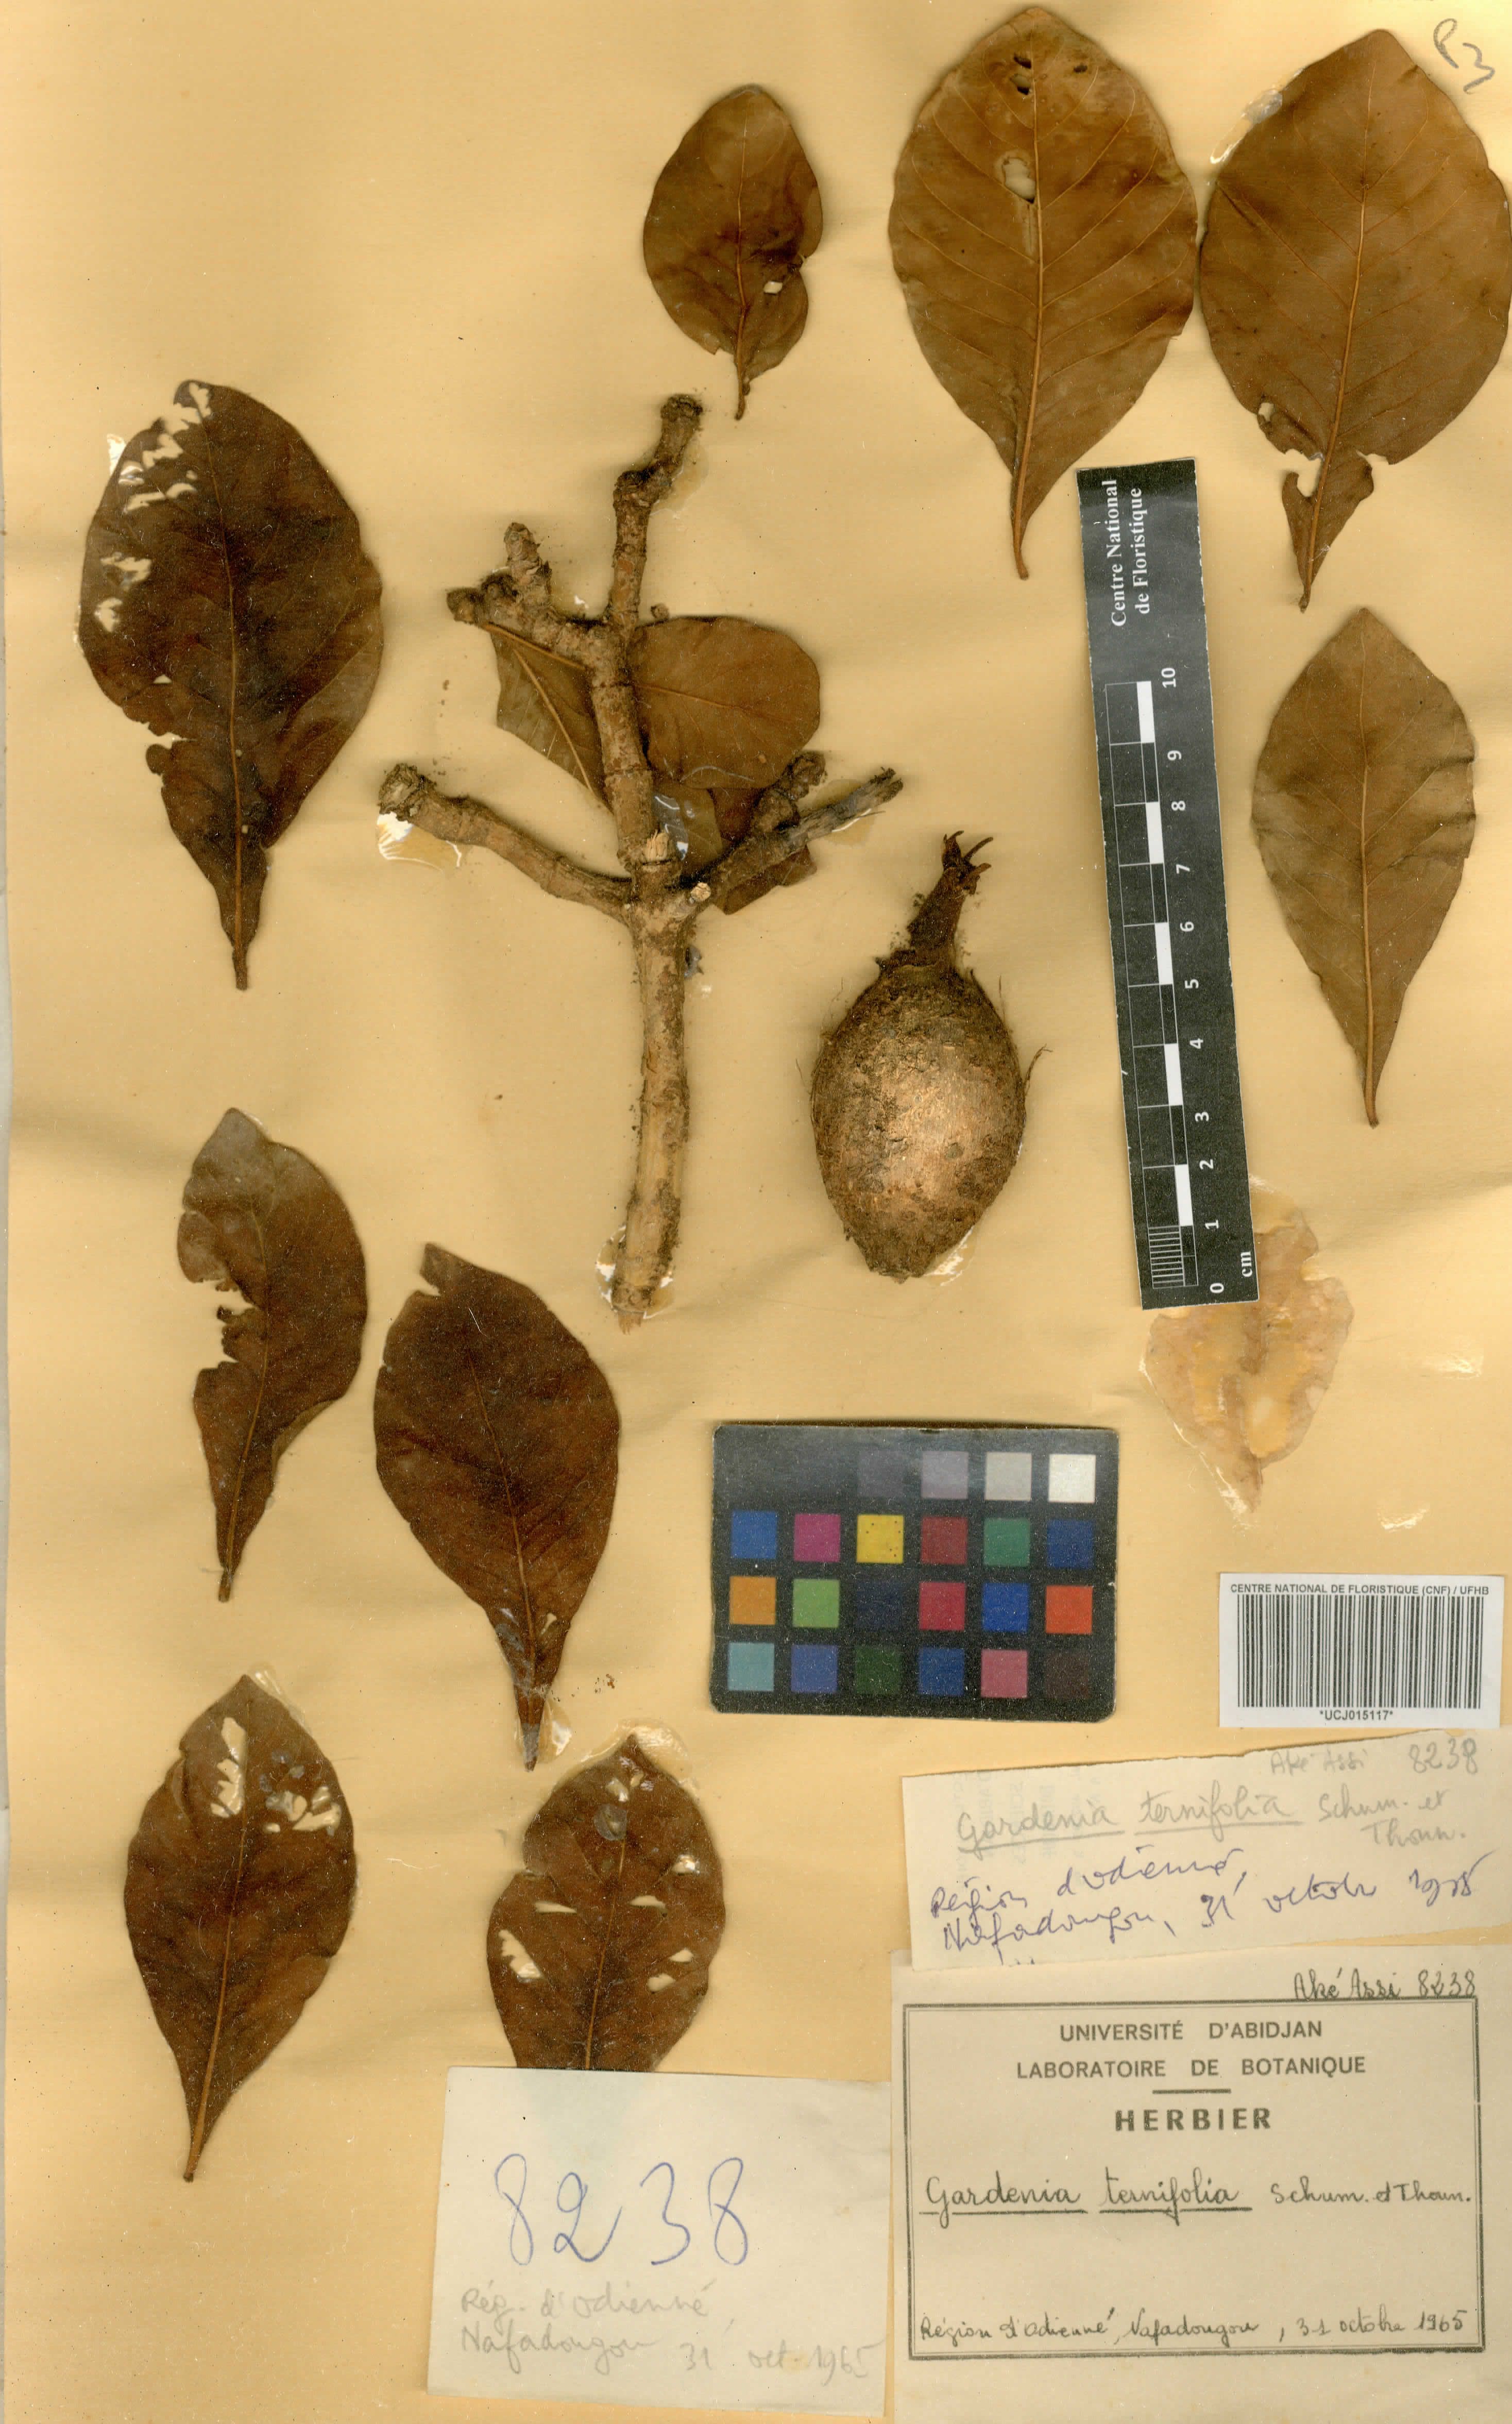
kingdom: Plantae
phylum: Tracheophyta
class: Magnoliopsida
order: Gentianales
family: Rubiaceae
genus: Gardenia
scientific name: Gardenia ternifolia
